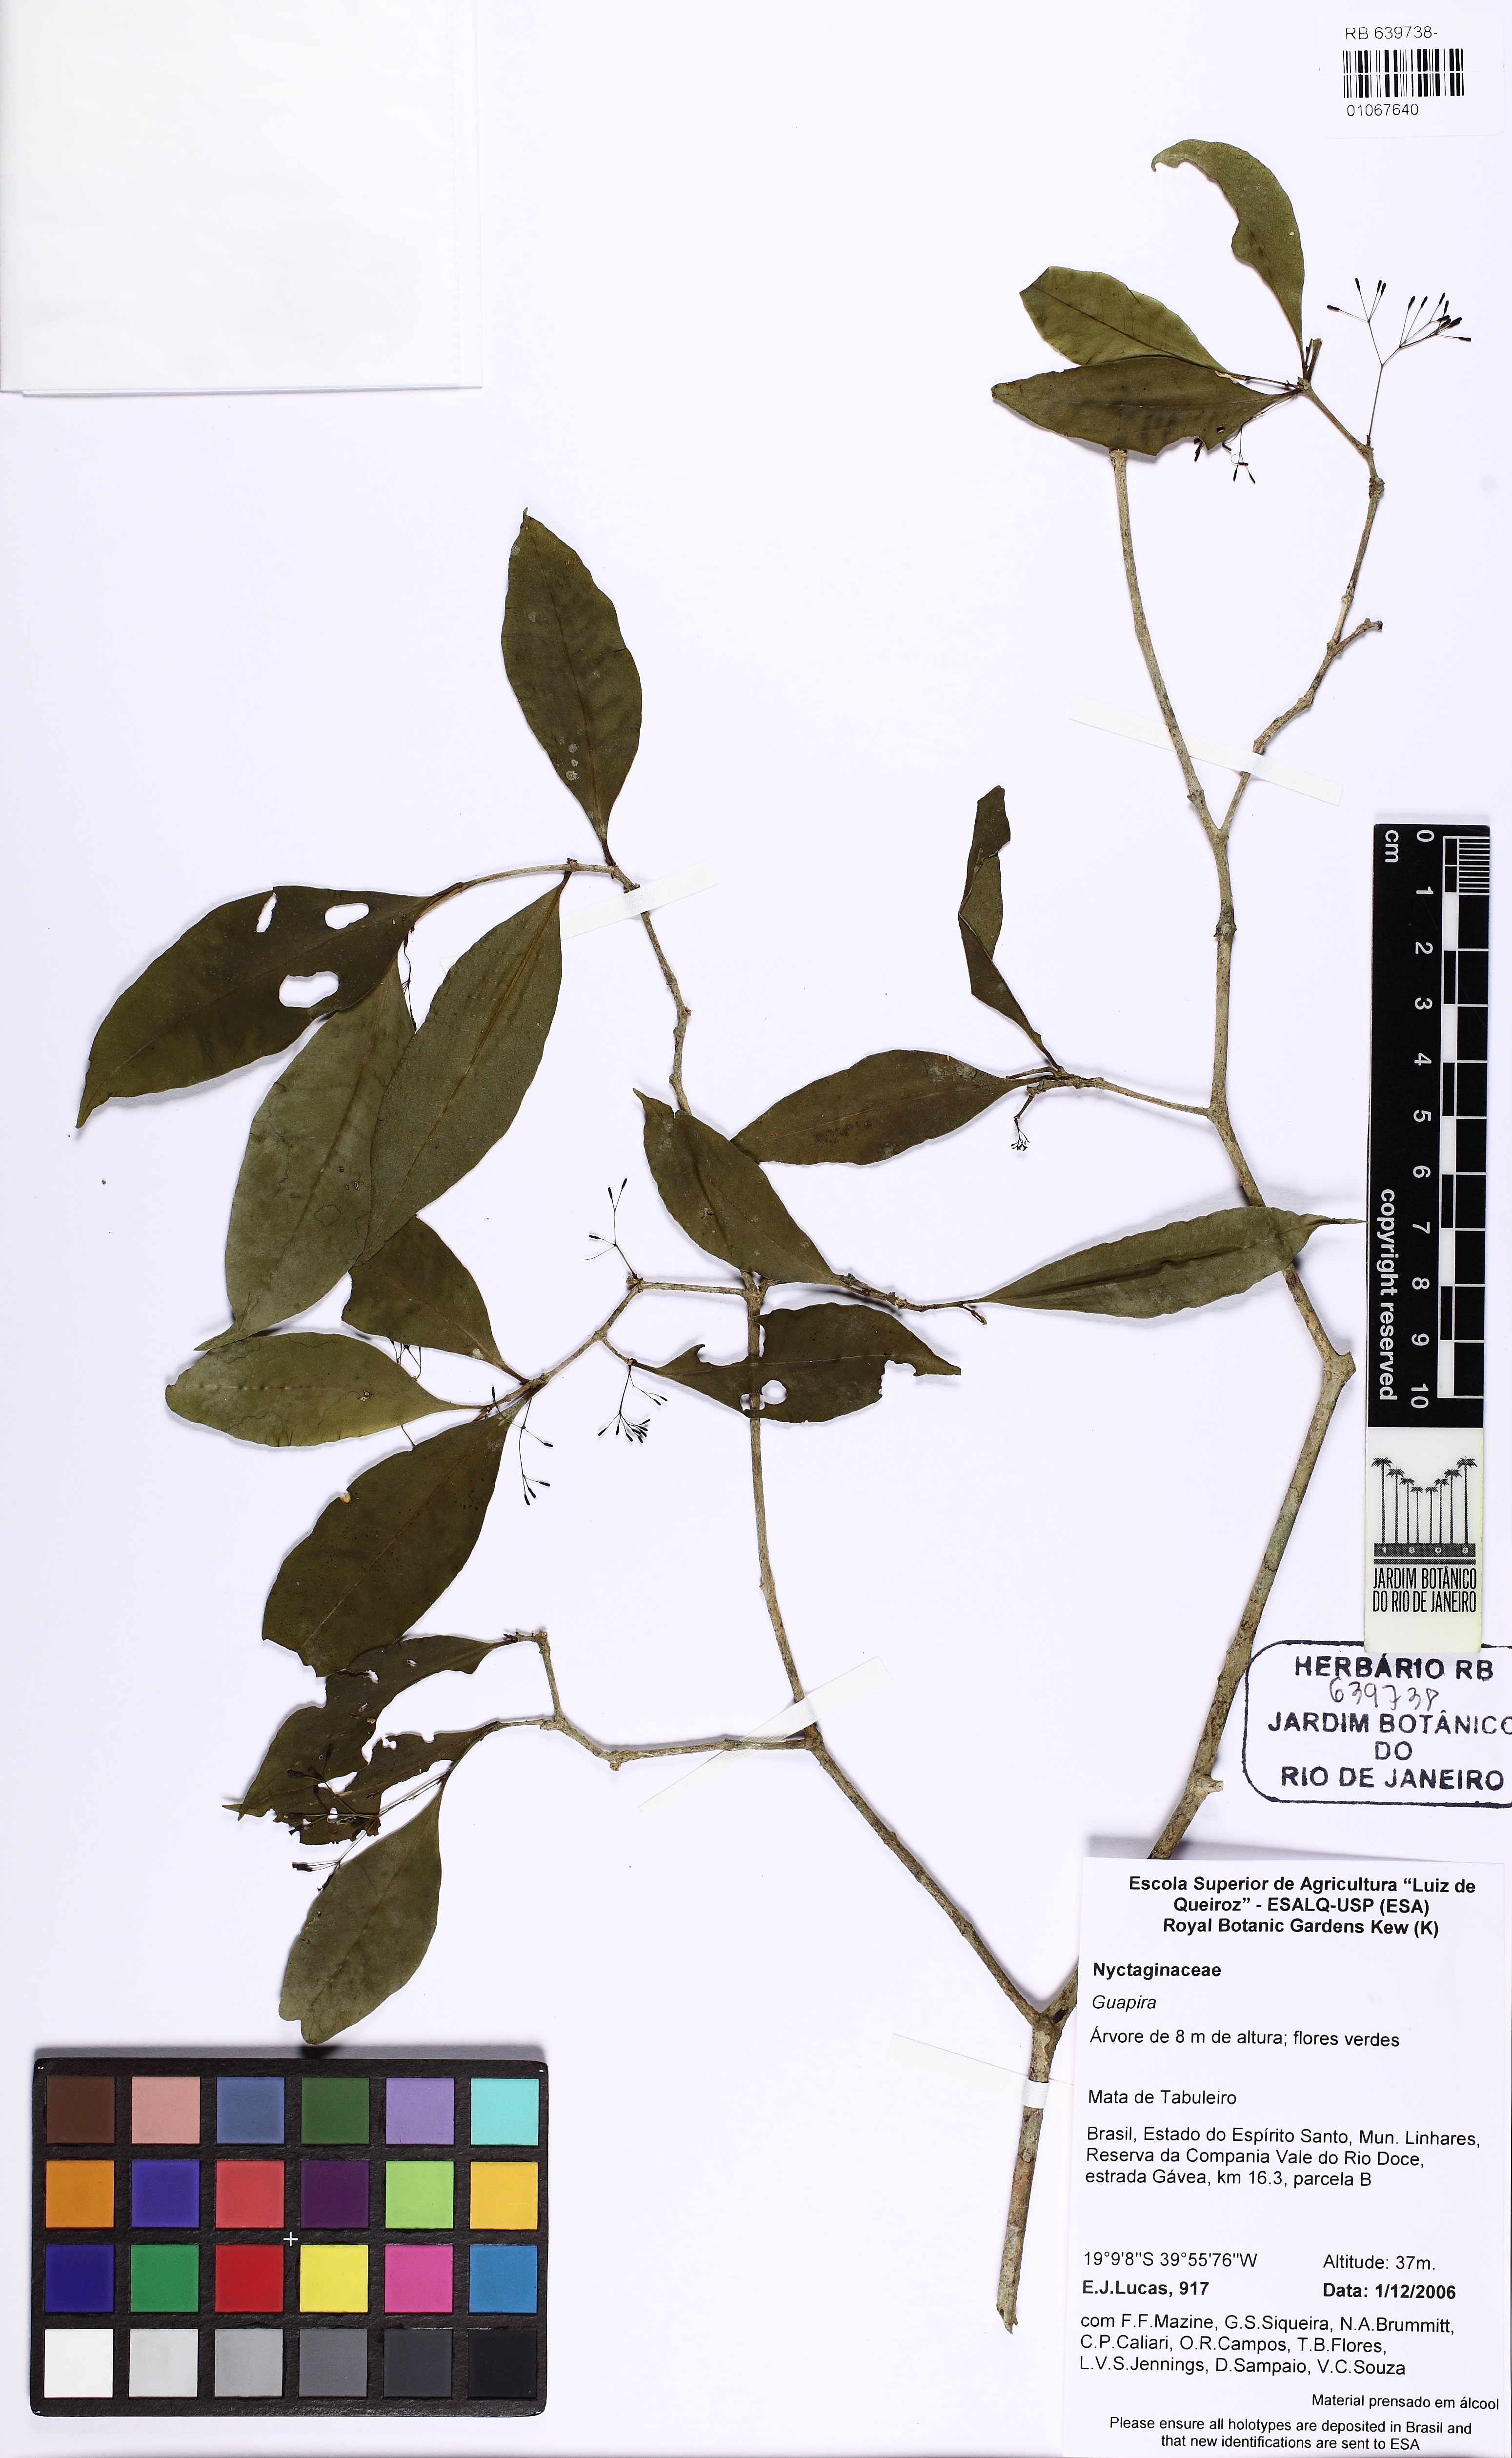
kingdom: Plantae
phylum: Tracheophyta
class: Magnoliopsida
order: Caryophyllales
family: Nyctaginaceae
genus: Guapira
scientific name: Guapira
